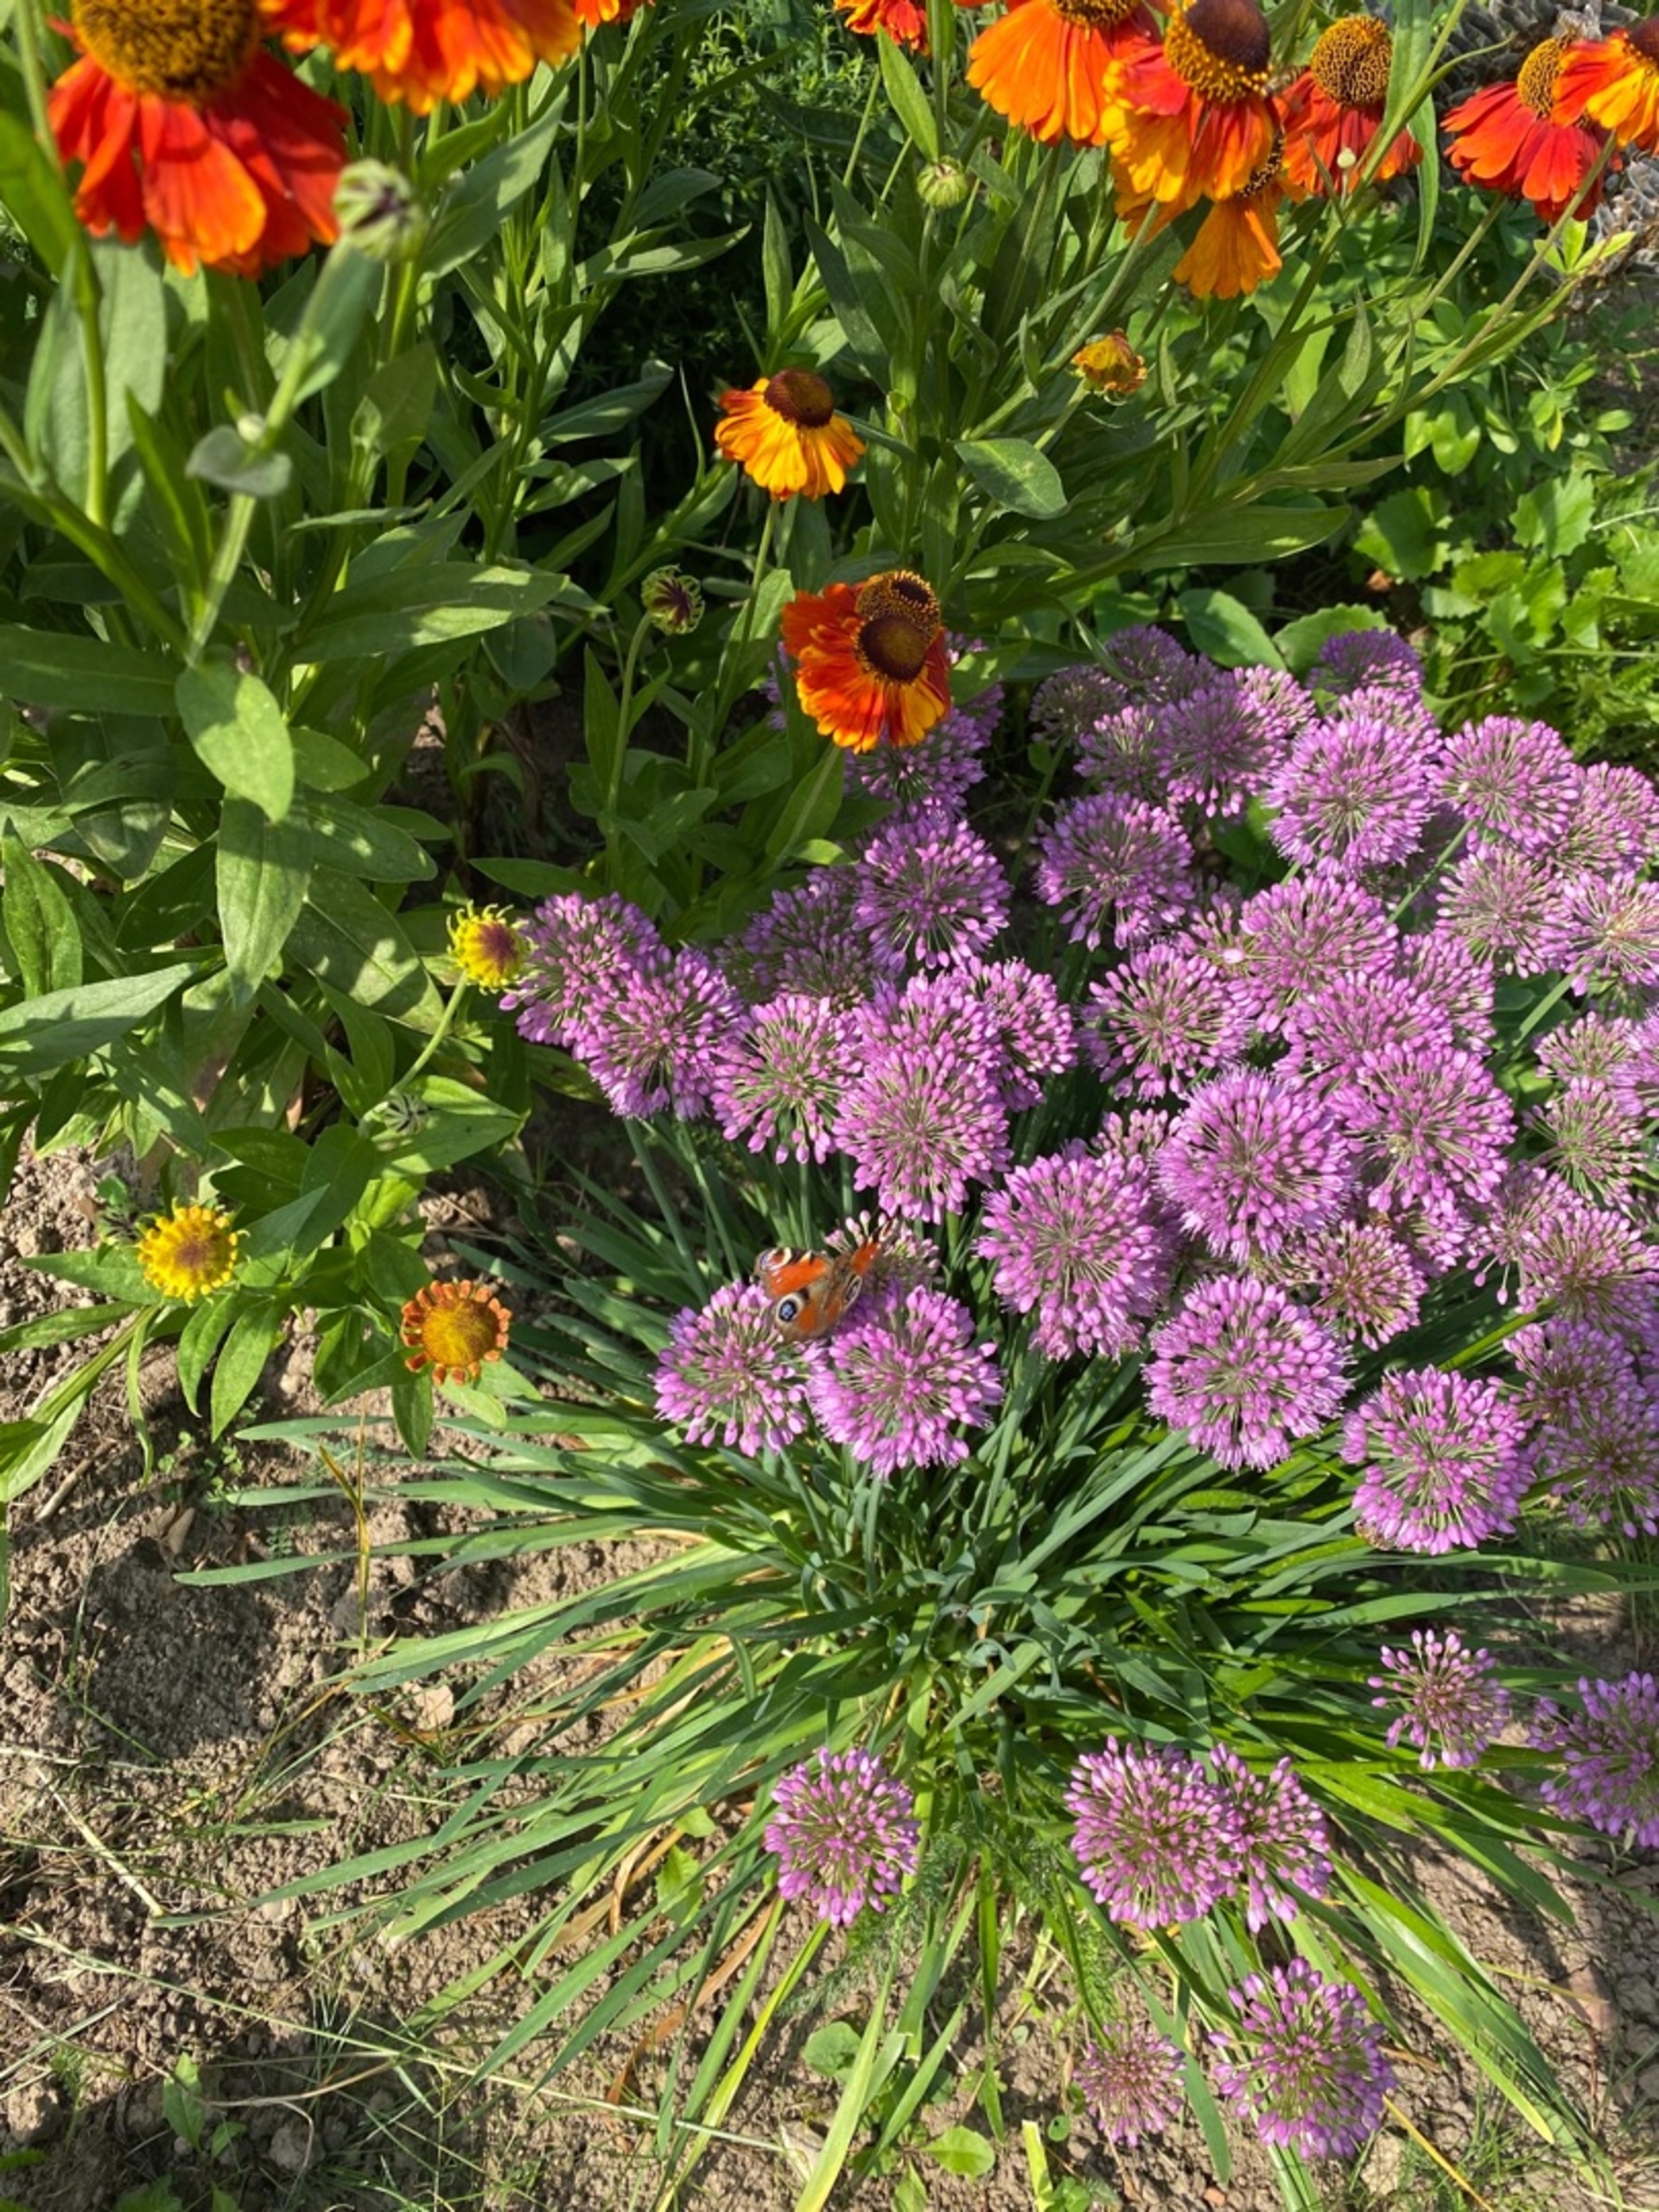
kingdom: Animalia
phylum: Arthropoda
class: Insecta
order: Lepidoptera
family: Nymphalidae
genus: Aglais
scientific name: Aglais io
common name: Dagpåfugleøje
